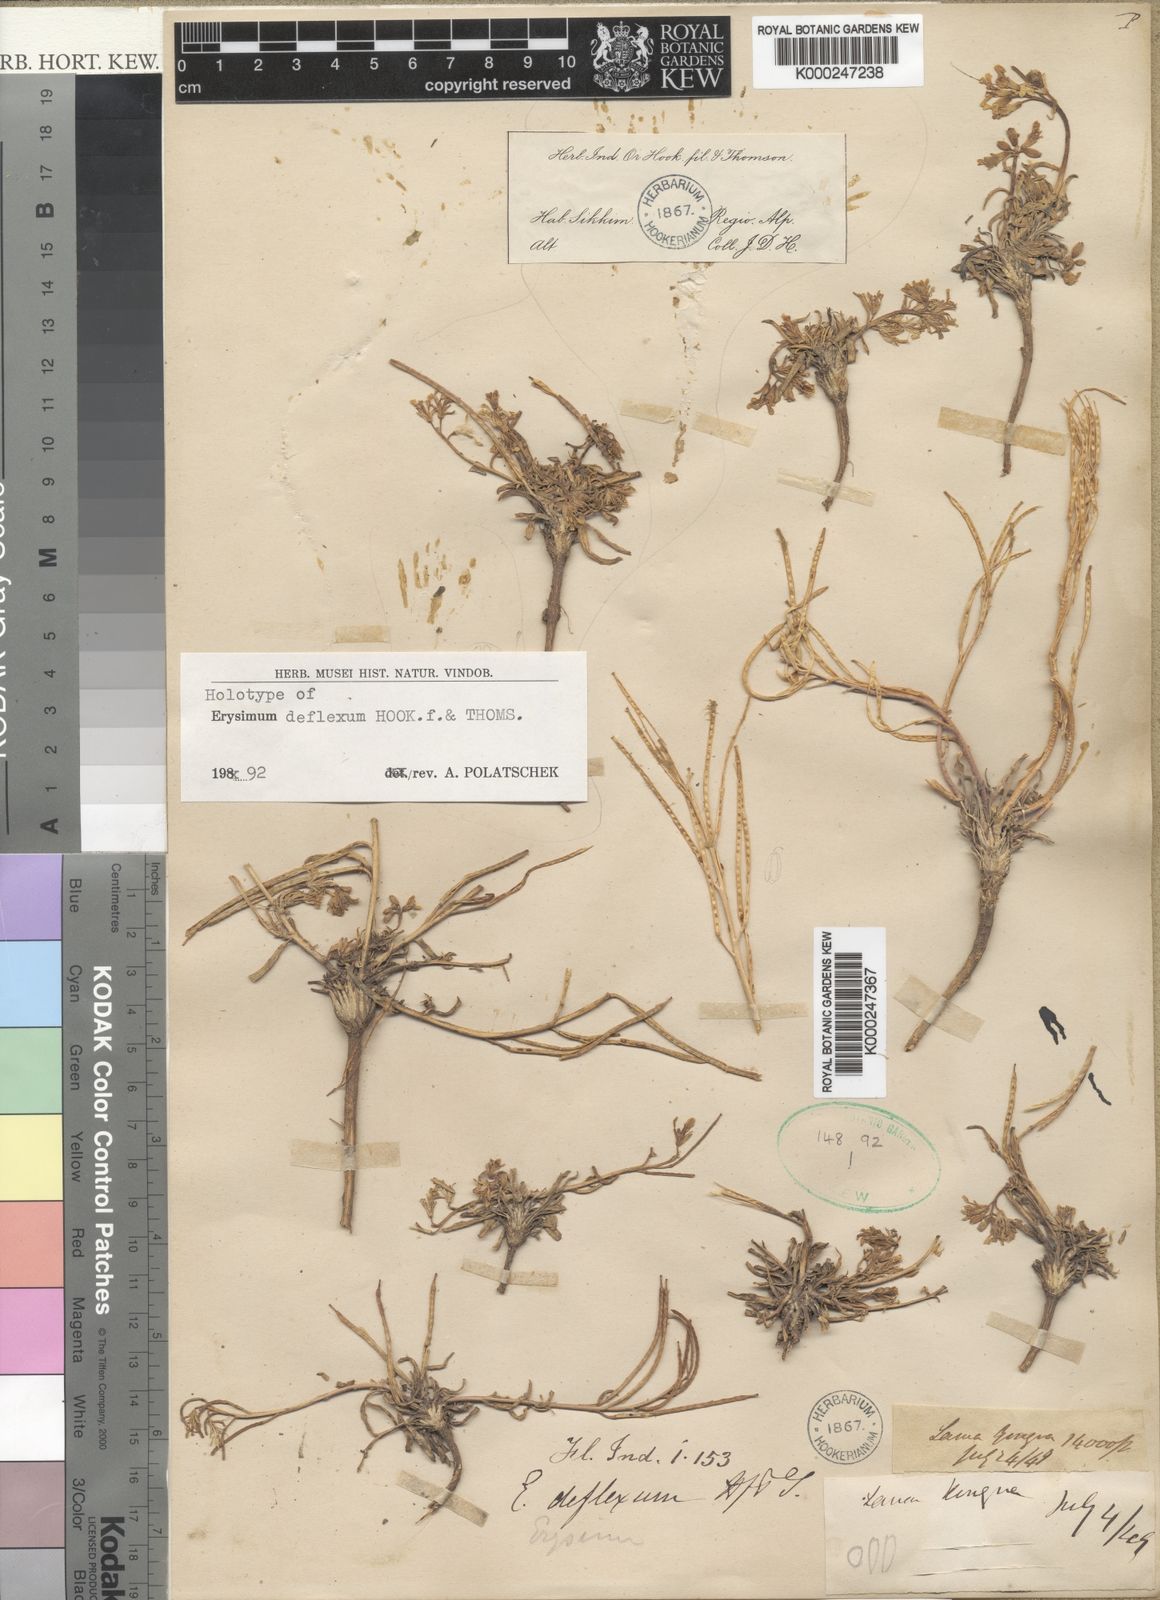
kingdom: Plantae
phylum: Tracheophyta
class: Magnoliopsida
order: Brassicales
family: Brassicaceae
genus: Erysimum
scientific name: Erysimum deflexum
